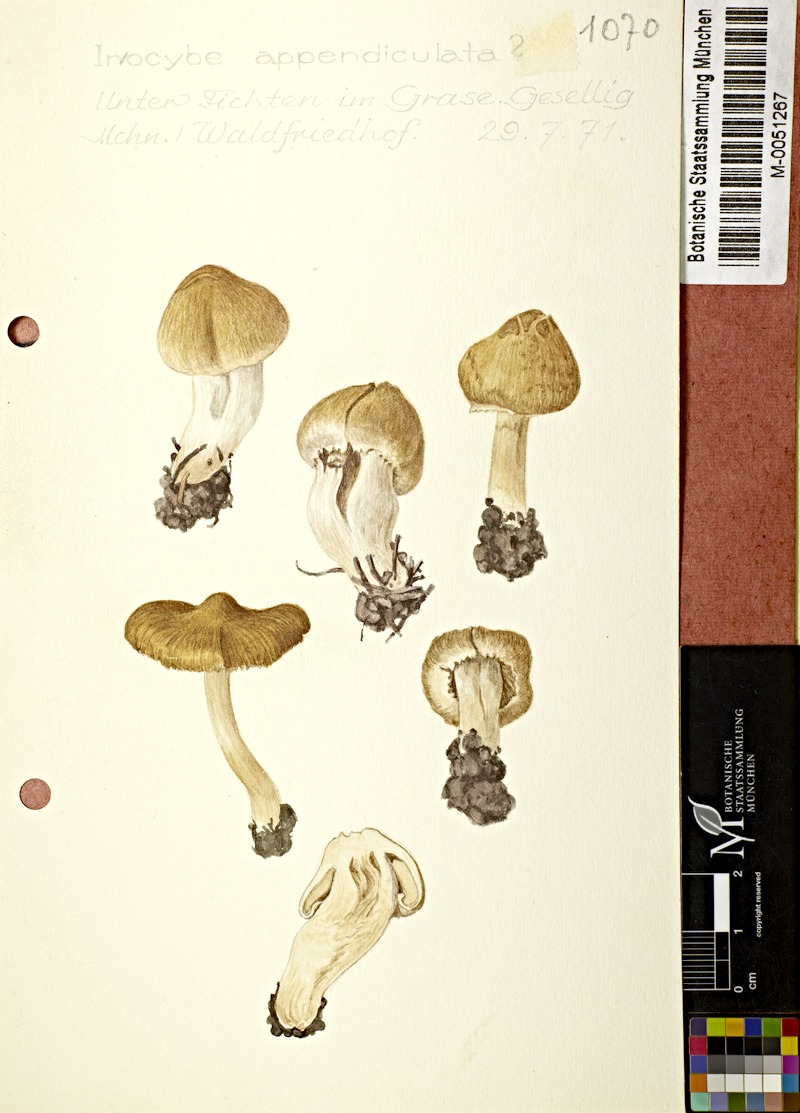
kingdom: Fungi
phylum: Basidiomycota
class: Agaricomycetes
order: Agaricales
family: Inocybaceae
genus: Inocybe
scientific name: Inocybe appendiculata
